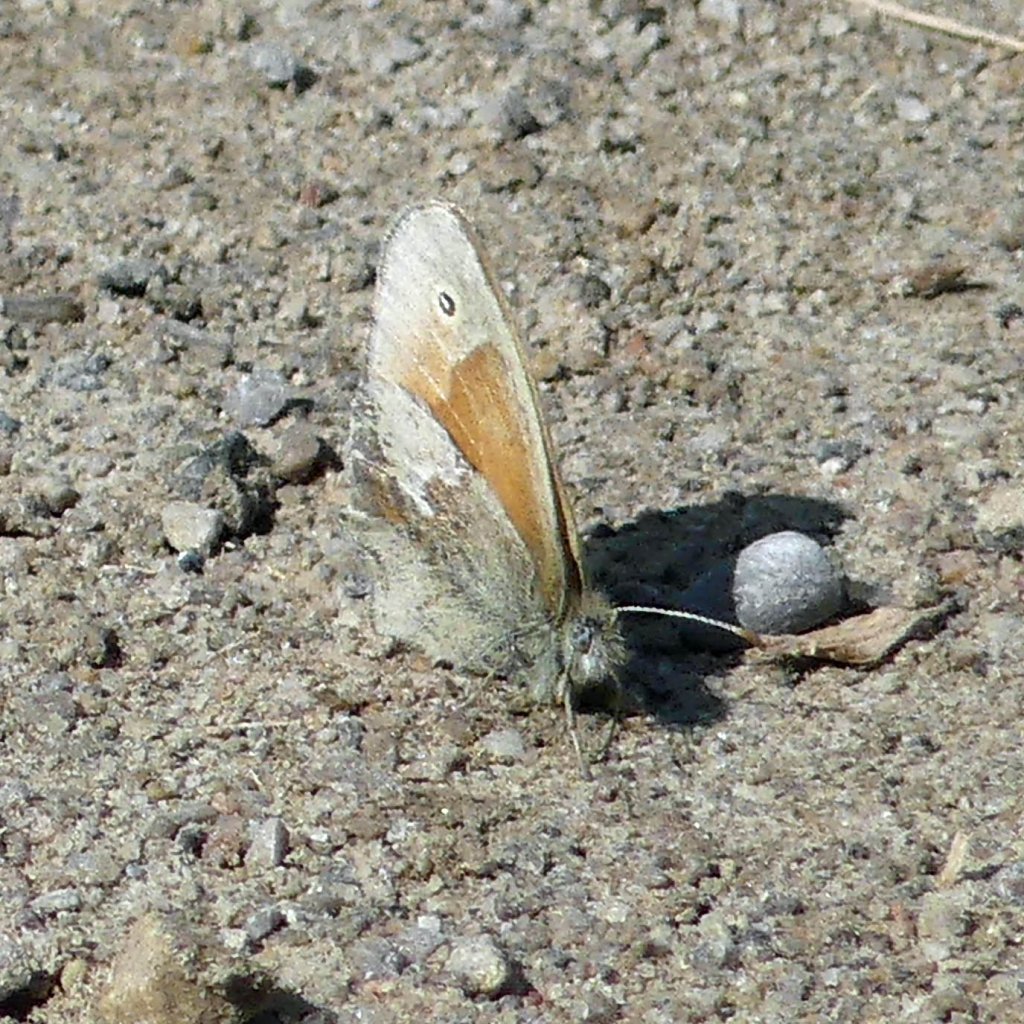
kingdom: Animalia
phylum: Arthropoda
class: Insecta
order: Lepidoptera
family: Nymphalidae
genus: Coenonympha
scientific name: Coenonympha tullia
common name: Large Heath
